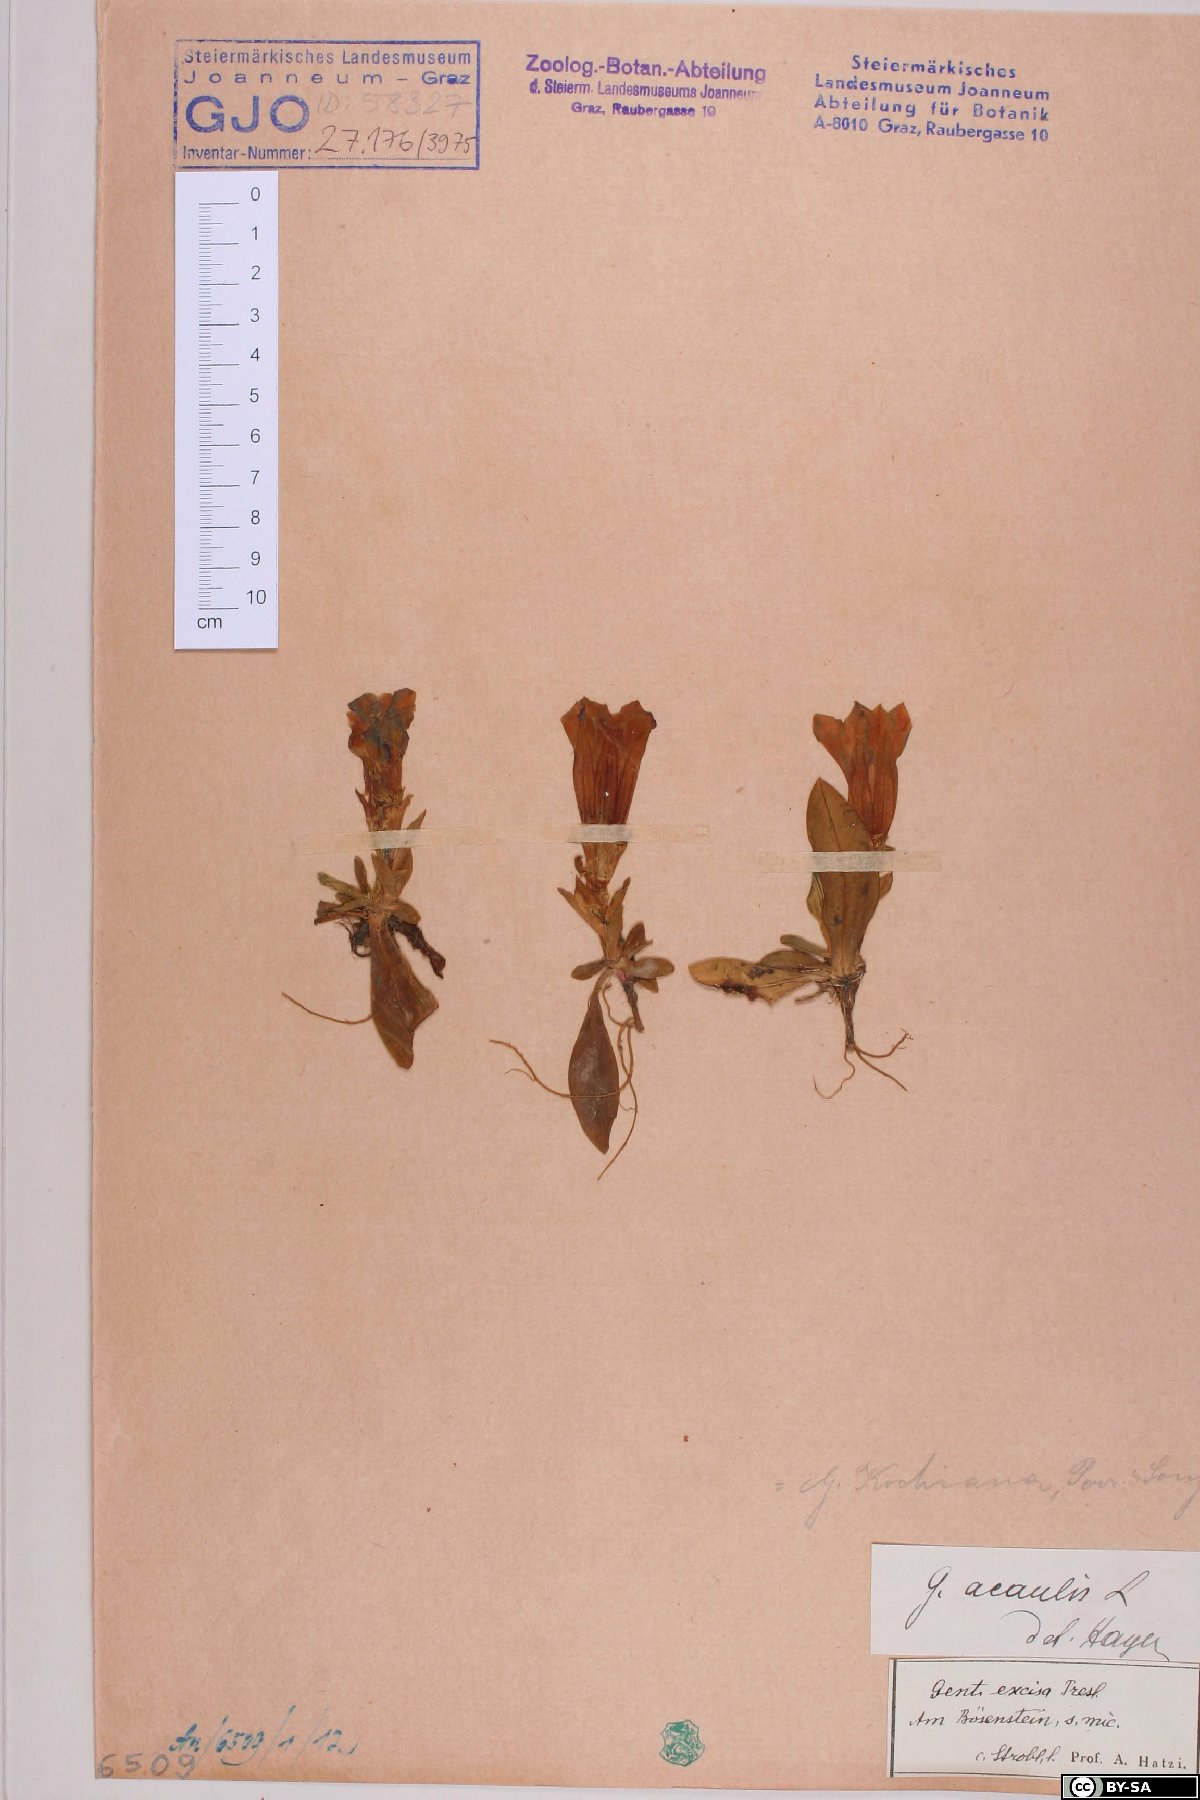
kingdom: Plantae
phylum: Tracheophyta
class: Magnoliopsida
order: Gentianales
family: Gentianaceae
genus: Gentiana
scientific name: Gentiana acaulis
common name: Trumpet gentian
